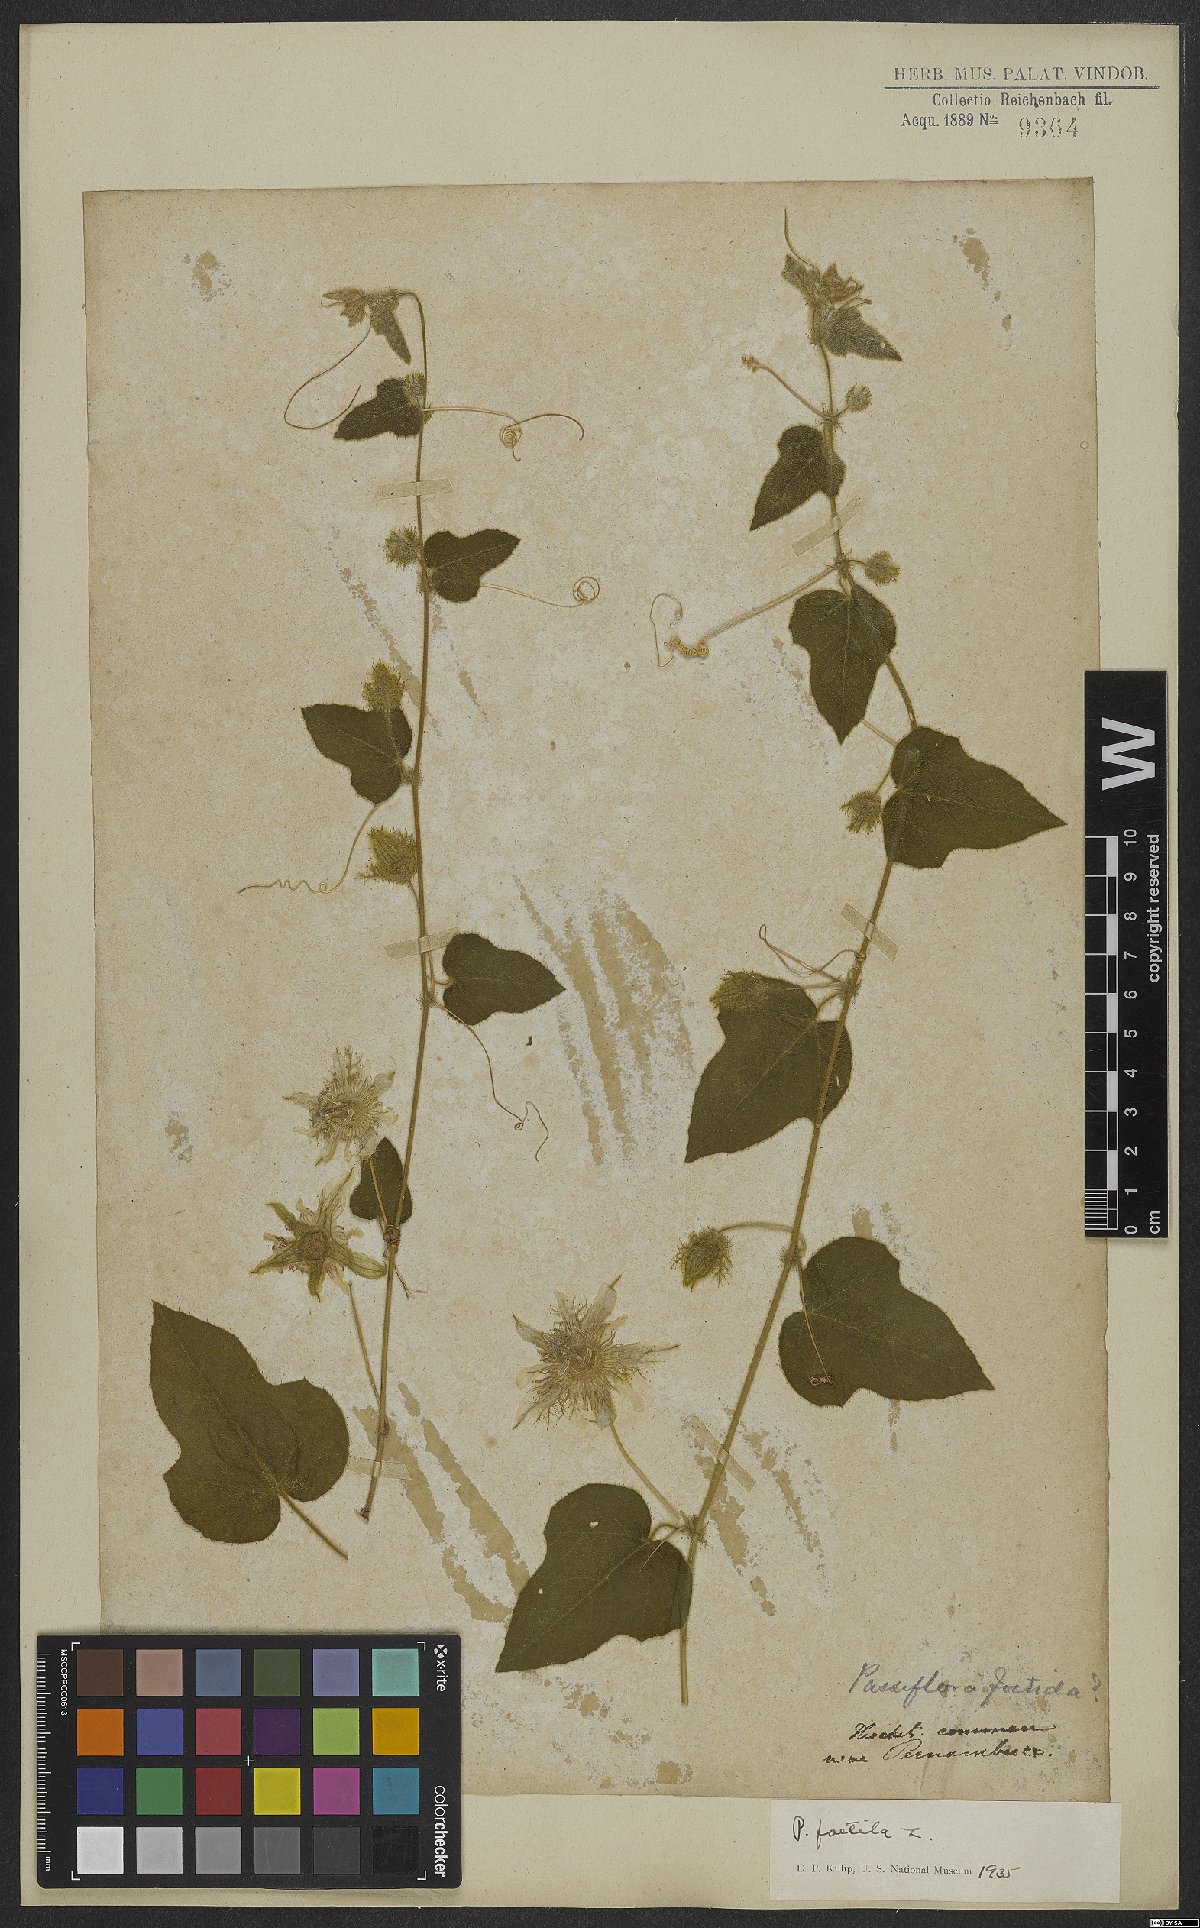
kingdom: Plantae
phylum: Tracheophyta
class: Magnoliopsida
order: Malpighiales
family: Passifloraceae
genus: Passiflora
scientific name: Passiflora foetida
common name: Fetid passionflower
